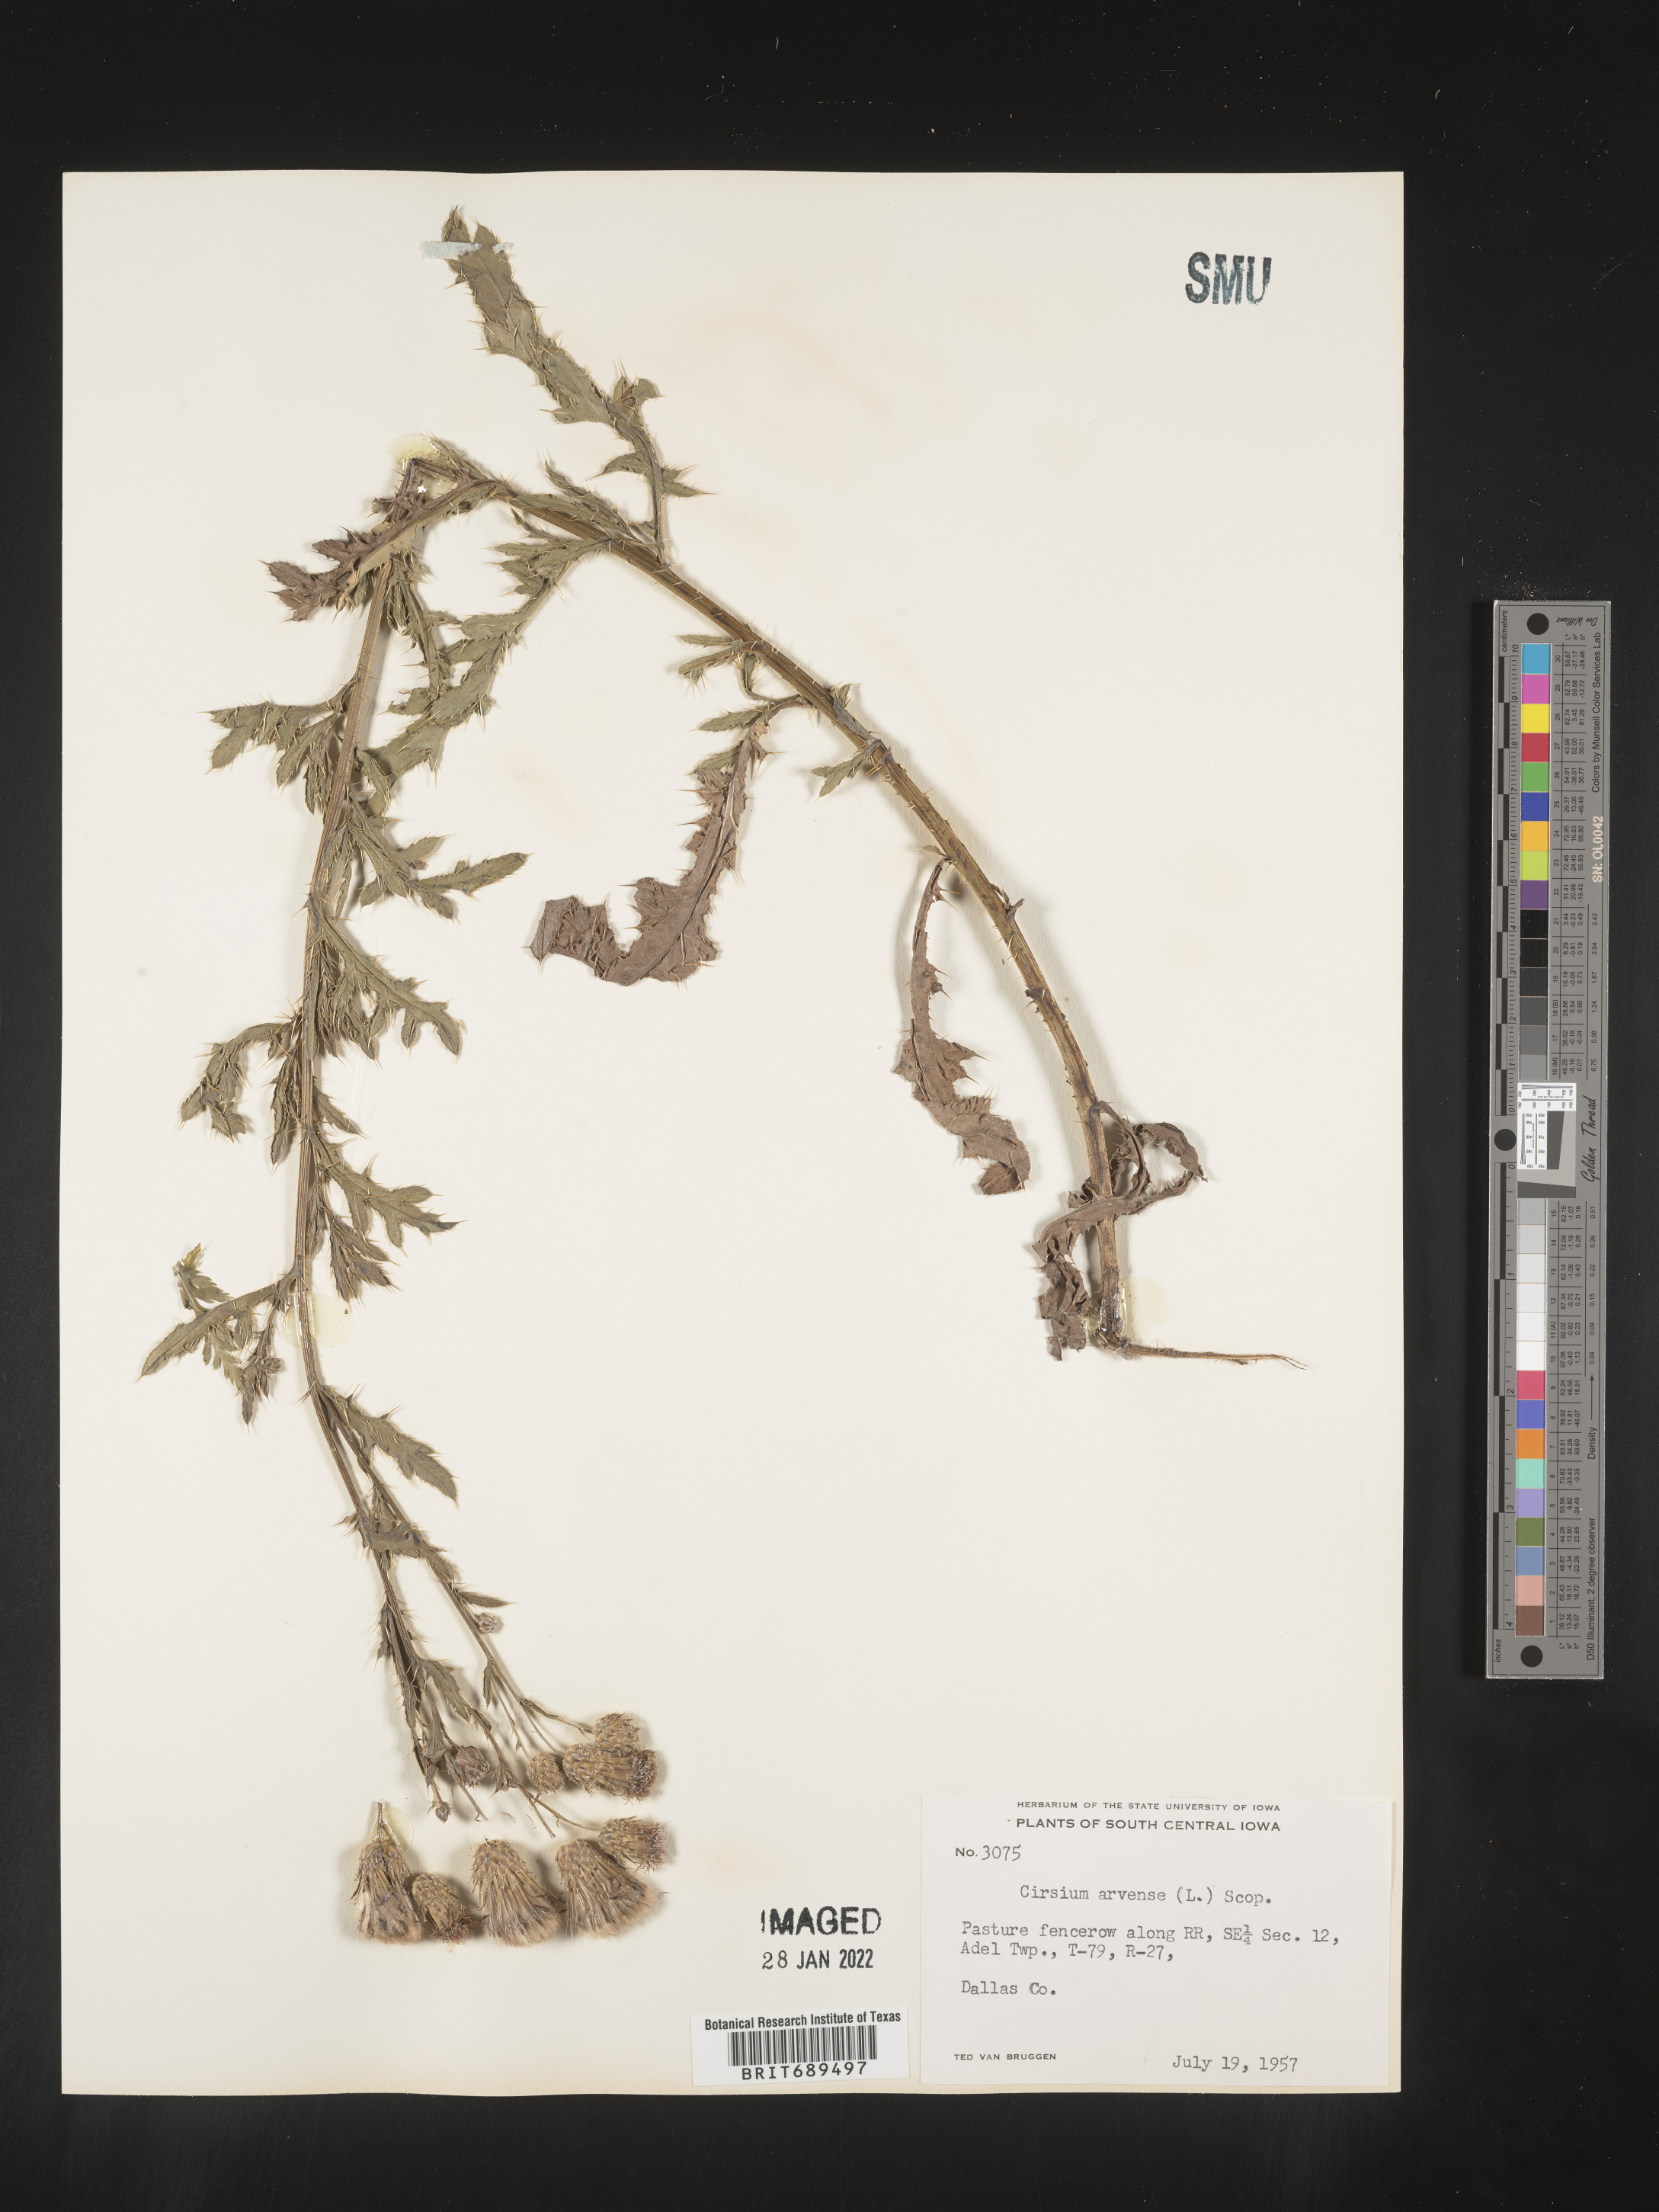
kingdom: Plantae
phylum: Tracheophyta
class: Magnoliopsida
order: Asterales
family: Asteraceae
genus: Cirsium
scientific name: Cirsium arvense
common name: Creeping thistle
